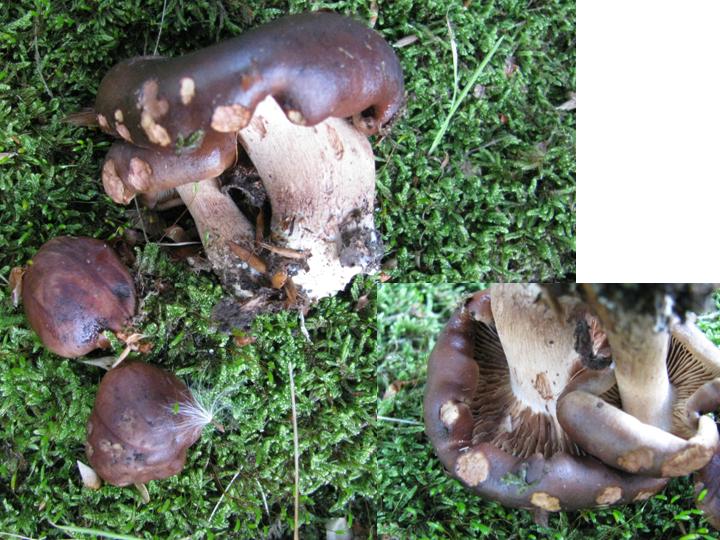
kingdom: Fungi
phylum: Basidiomycota
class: Agaricomycetes
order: Agaricales
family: Tricholomataceae
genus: Tricholoma
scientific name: Tricholoma ustale
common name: sveden ridderhat
